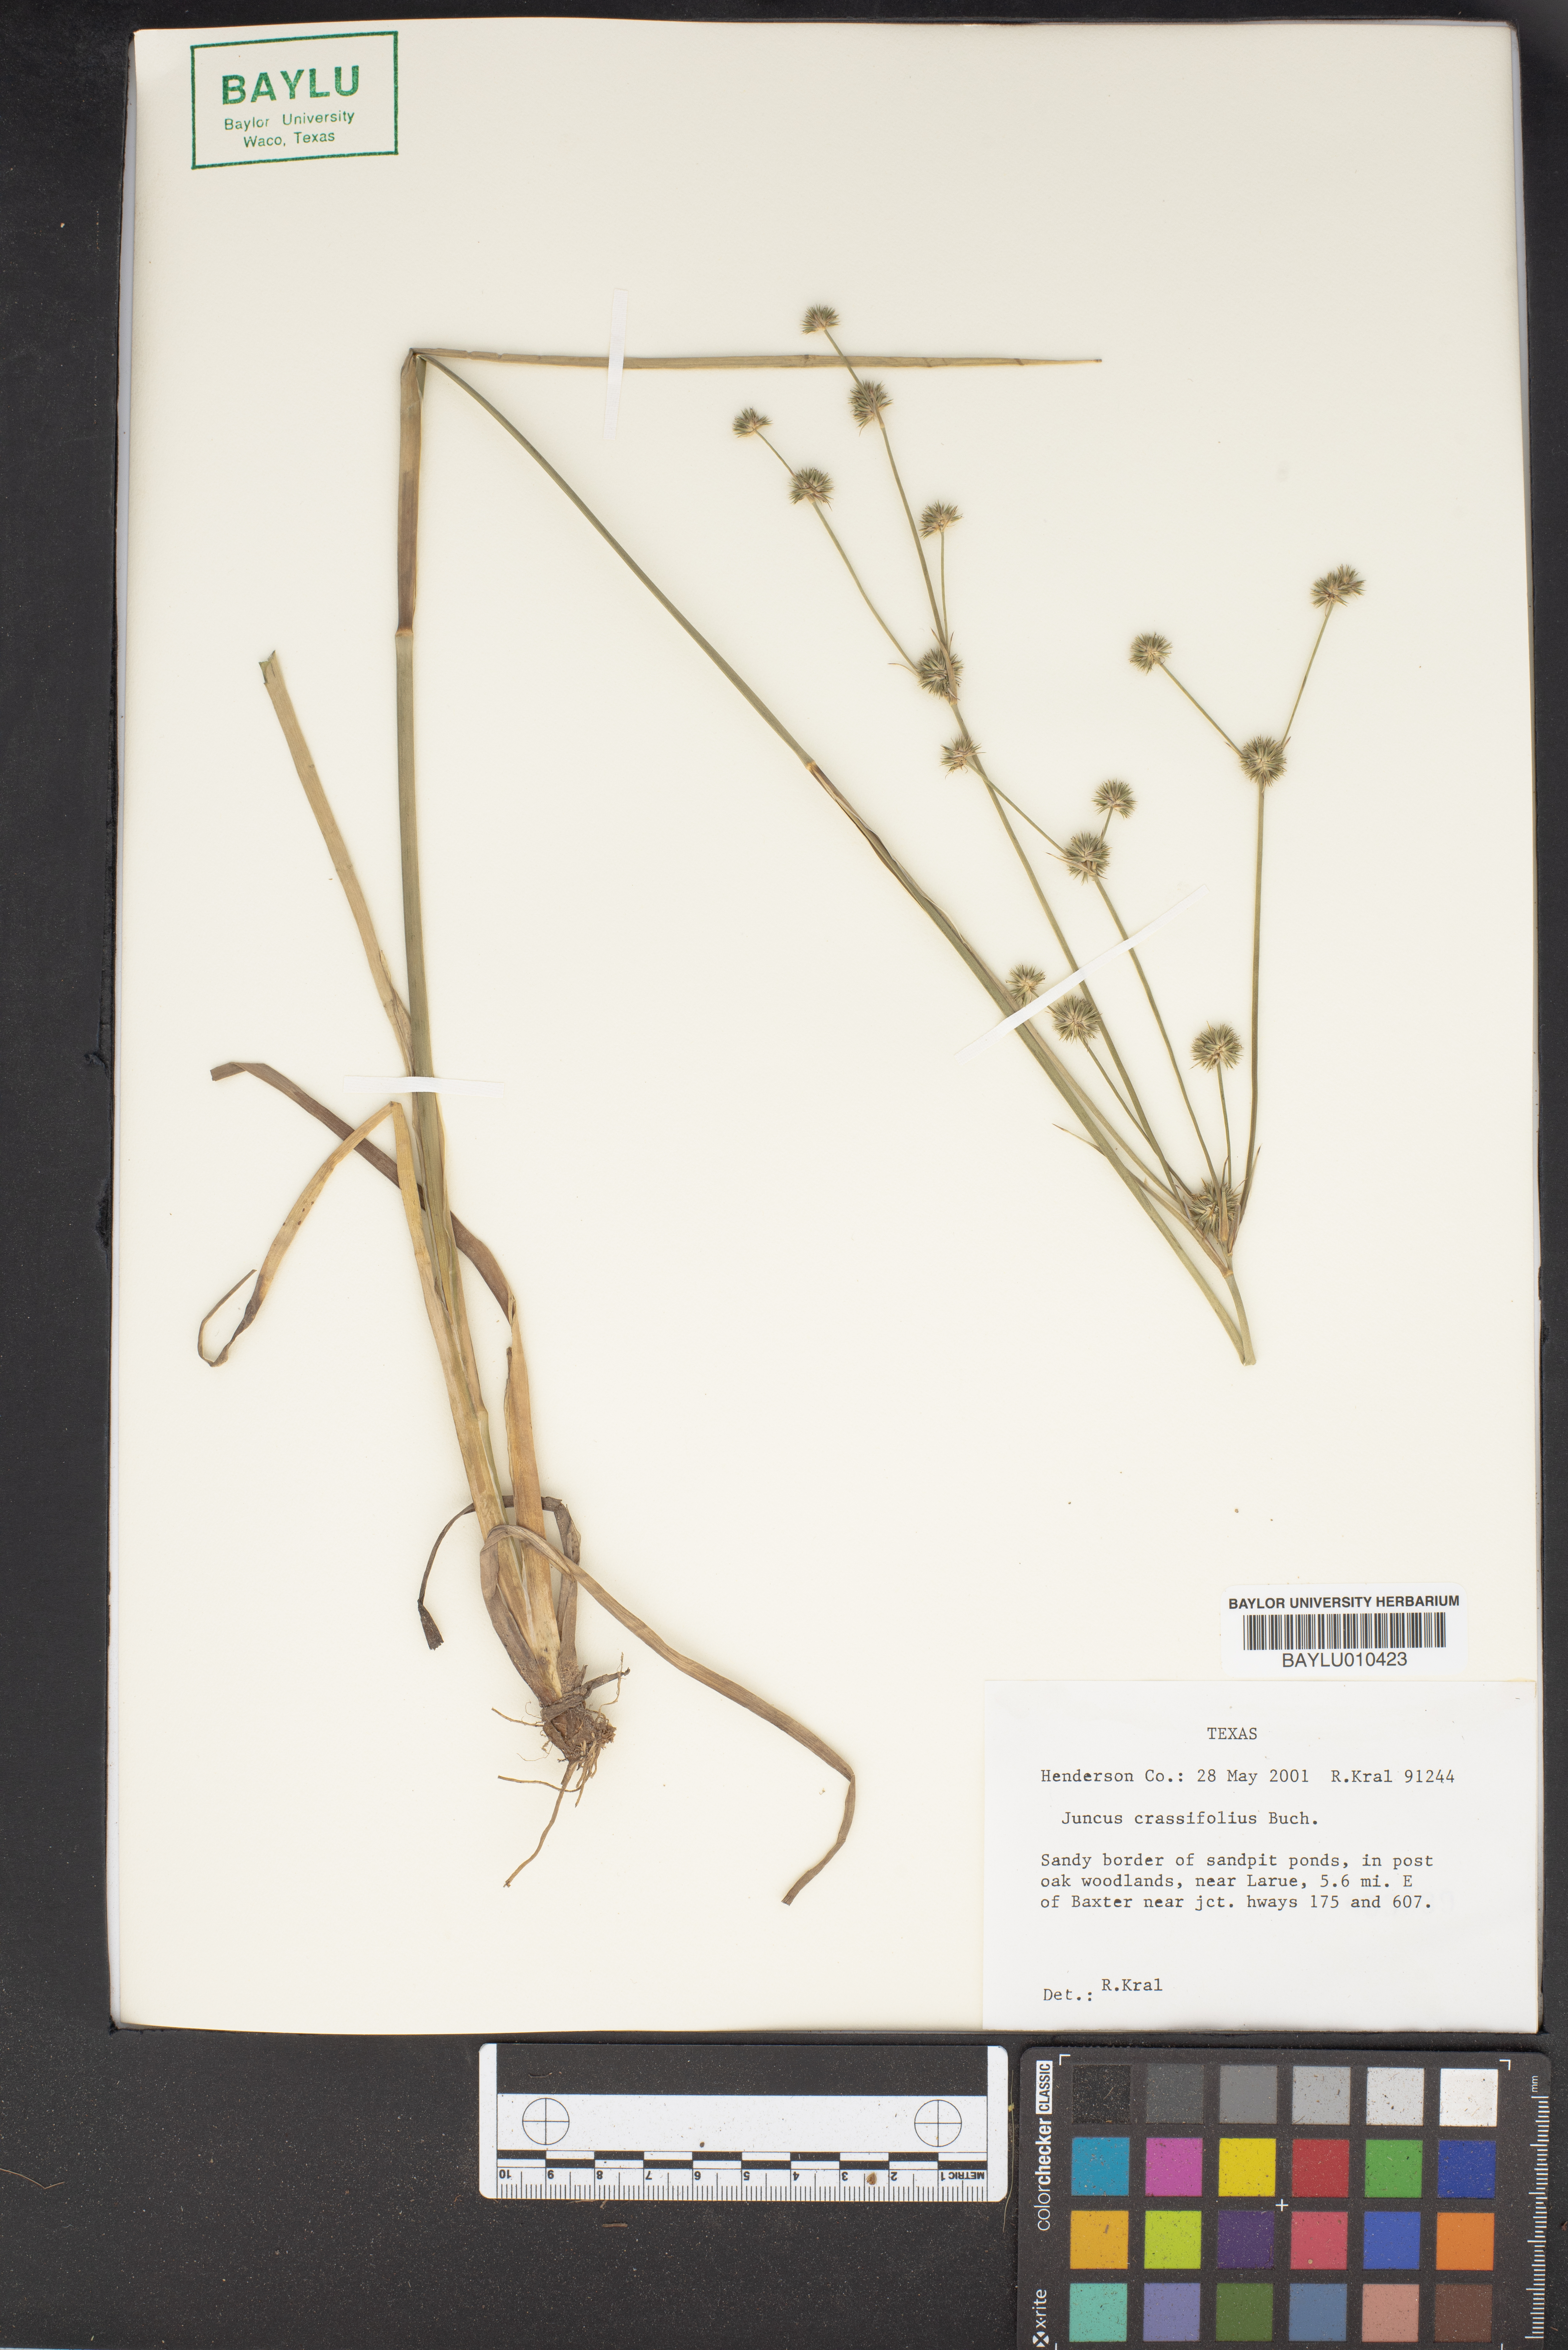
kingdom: Plantae
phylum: Tracheophyta
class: Liliopsida
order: Poales
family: Juncaceae
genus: Juncus
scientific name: Juncus validus
